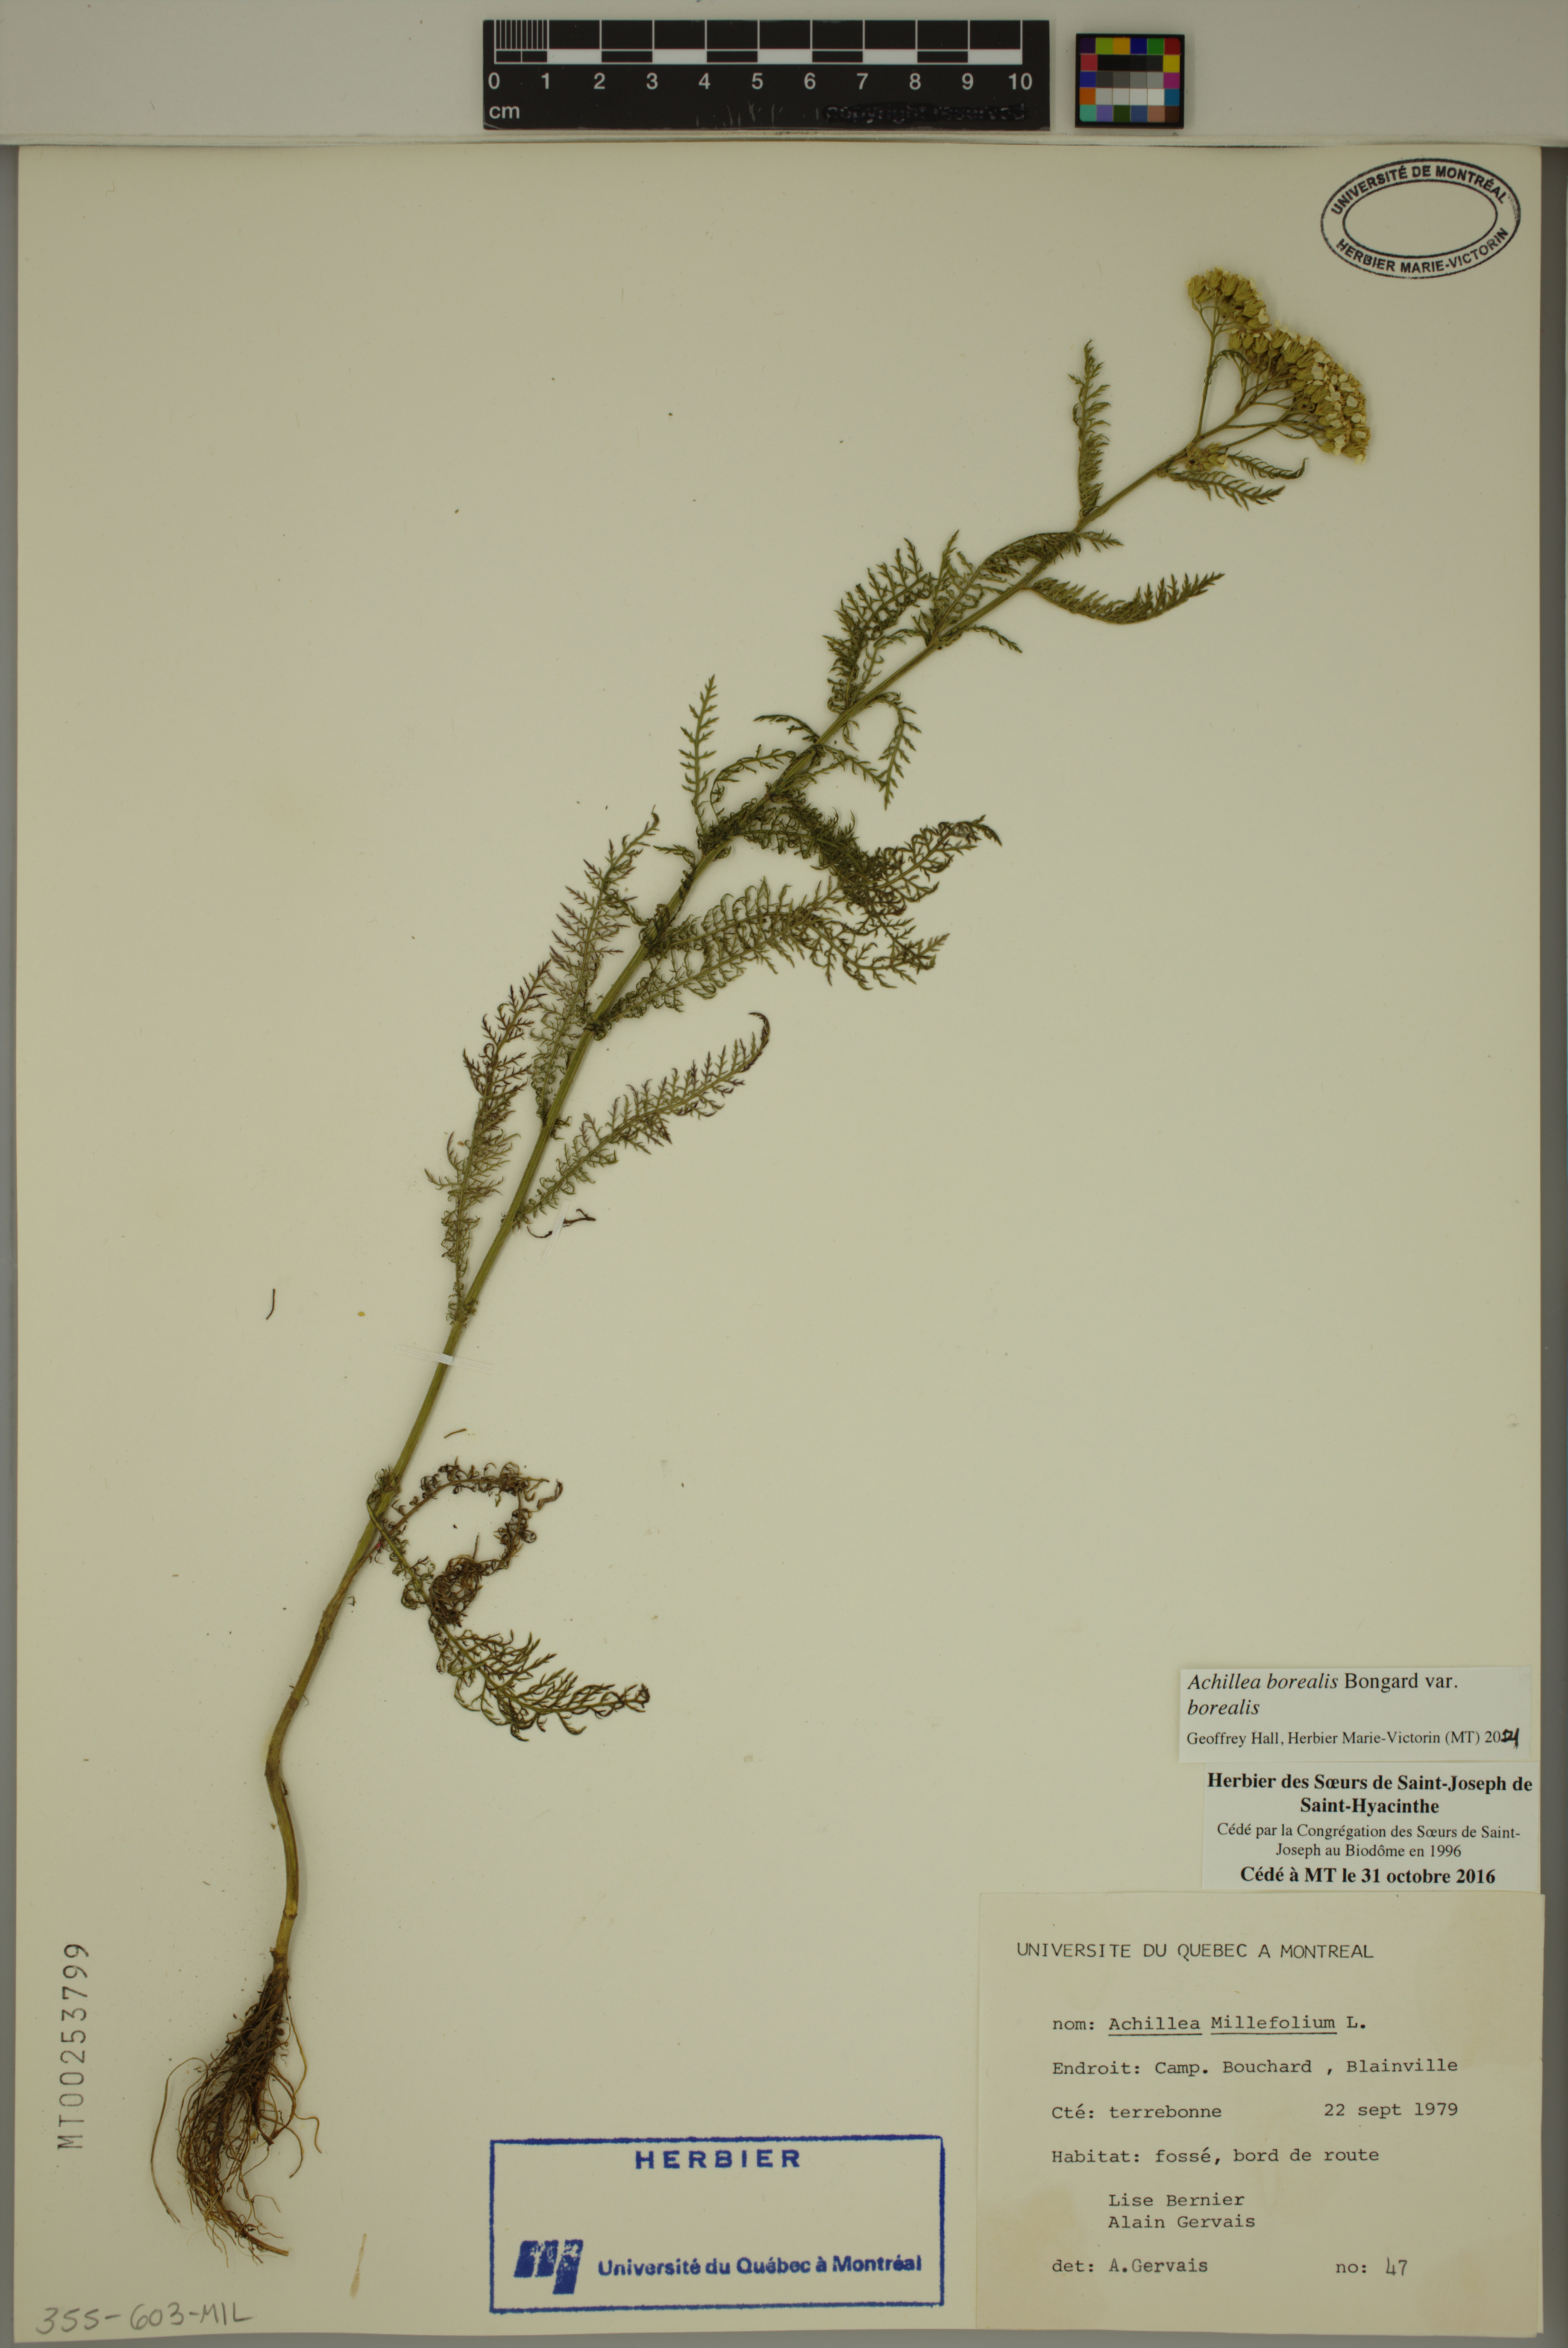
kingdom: Plantae
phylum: Tracheophyta
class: Magnoliopsida
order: Asterales
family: Asteraceae
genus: Achillea
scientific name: Achillea millefolium
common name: Yarrow
